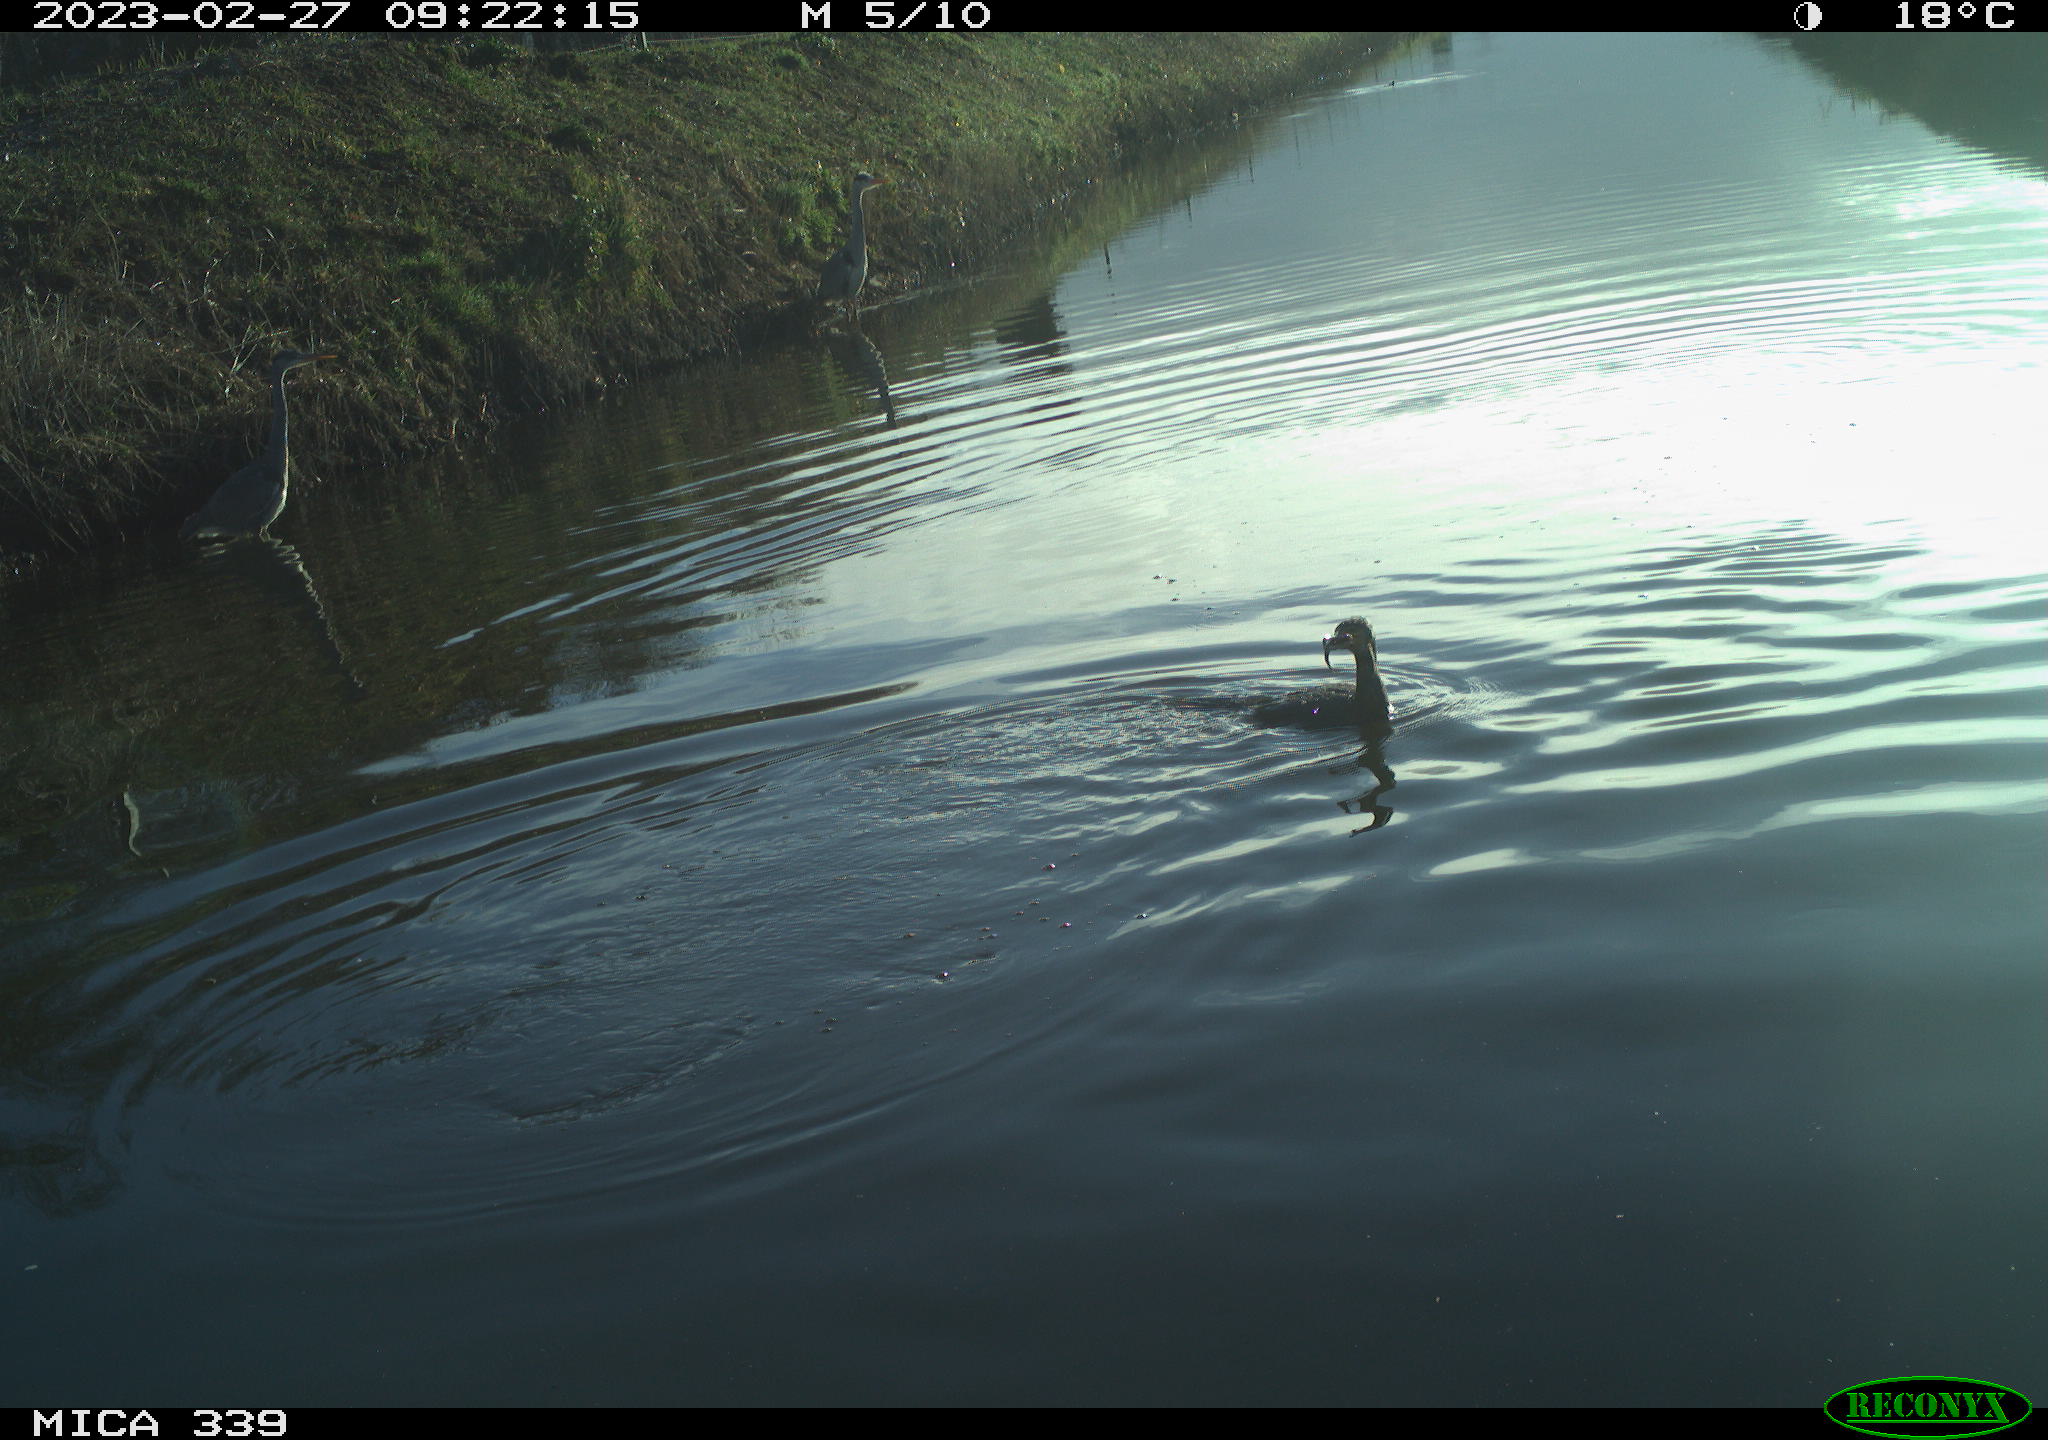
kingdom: Animalia
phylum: Chordata
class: Aves
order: Suliformes
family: Phalacrocoracidae
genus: Phalacrocorax
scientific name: Phalacrocorax carbo
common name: Great cormorant
